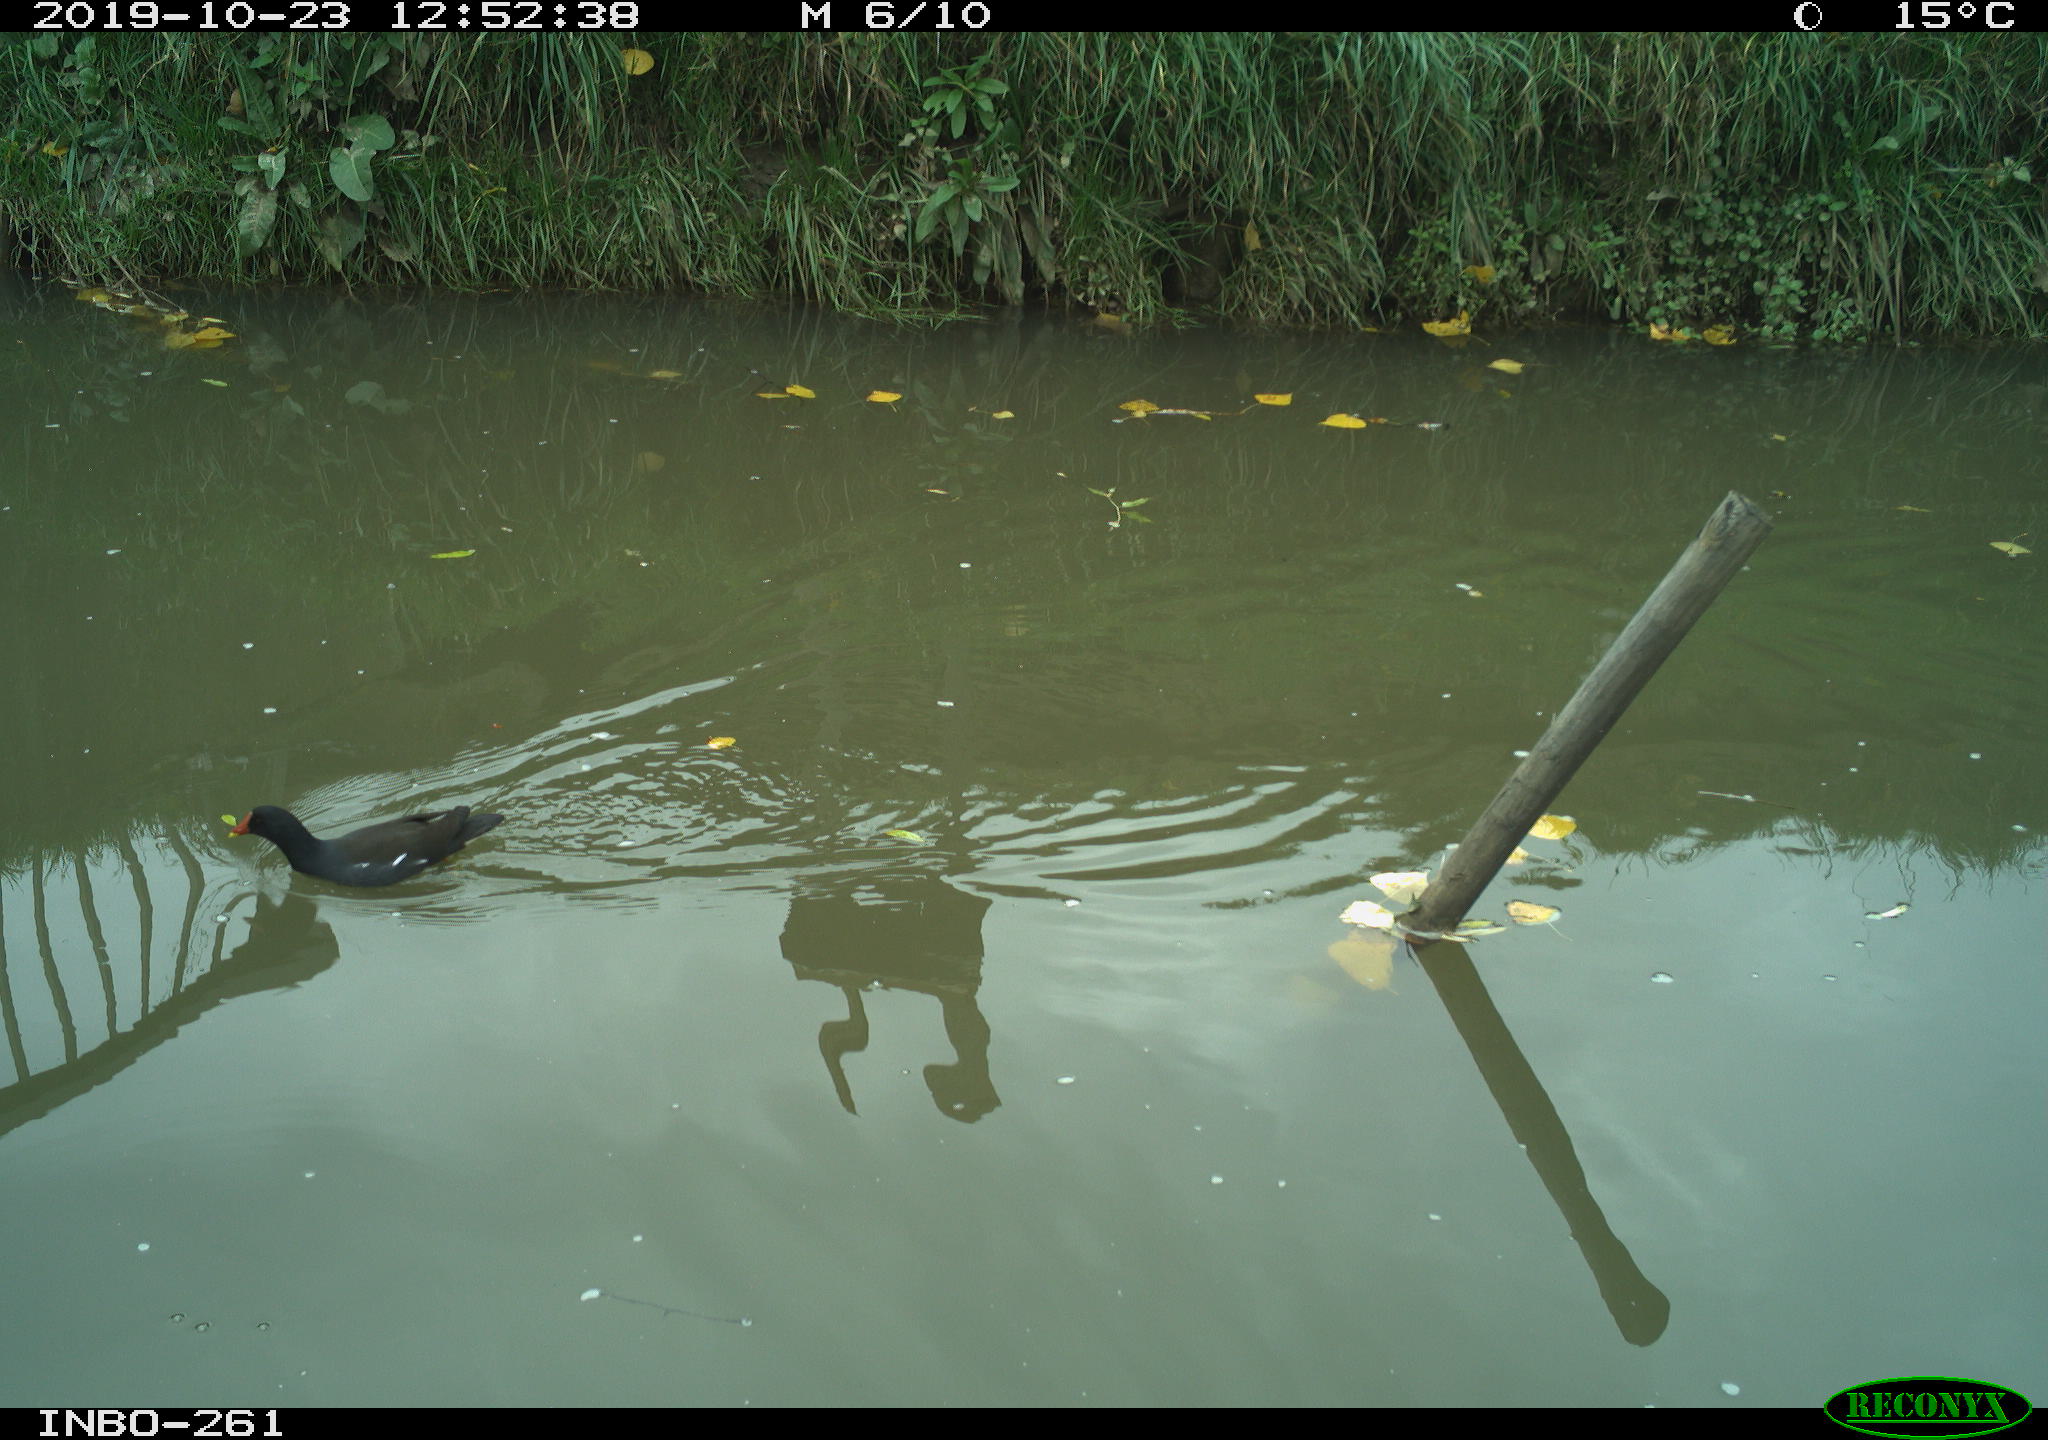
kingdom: Animalia
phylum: Chordata
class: Aves
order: Gruiformes
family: Rallidae
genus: Gallinula
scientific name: Gallinula chloropus
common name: Common moorhen
